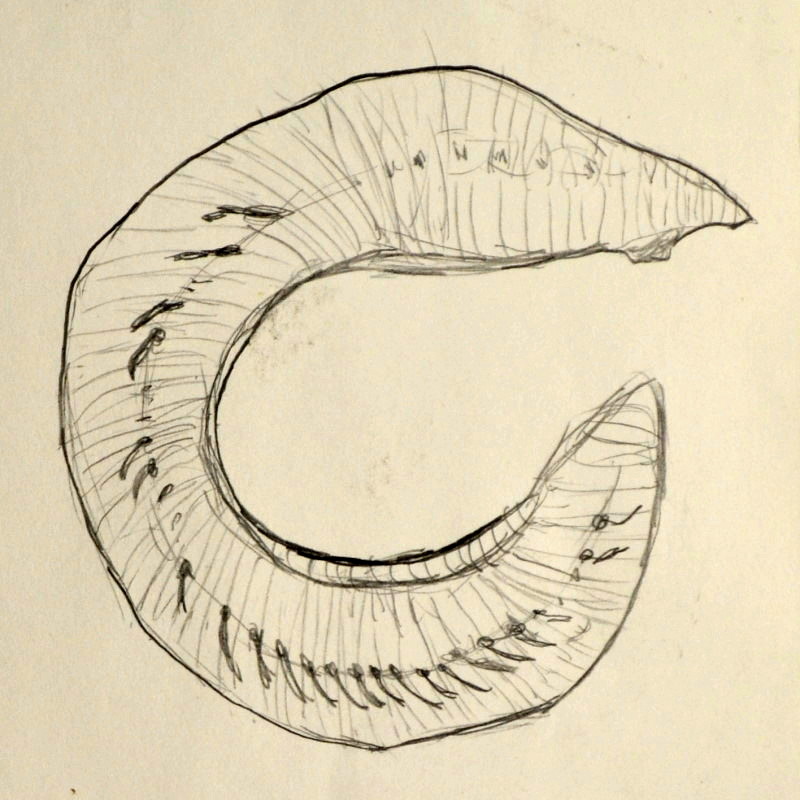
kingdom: Animalia
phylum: Annelida
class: Polychaeta
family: Opheliidae
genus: Ophelia
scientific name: Ophelia limacina
